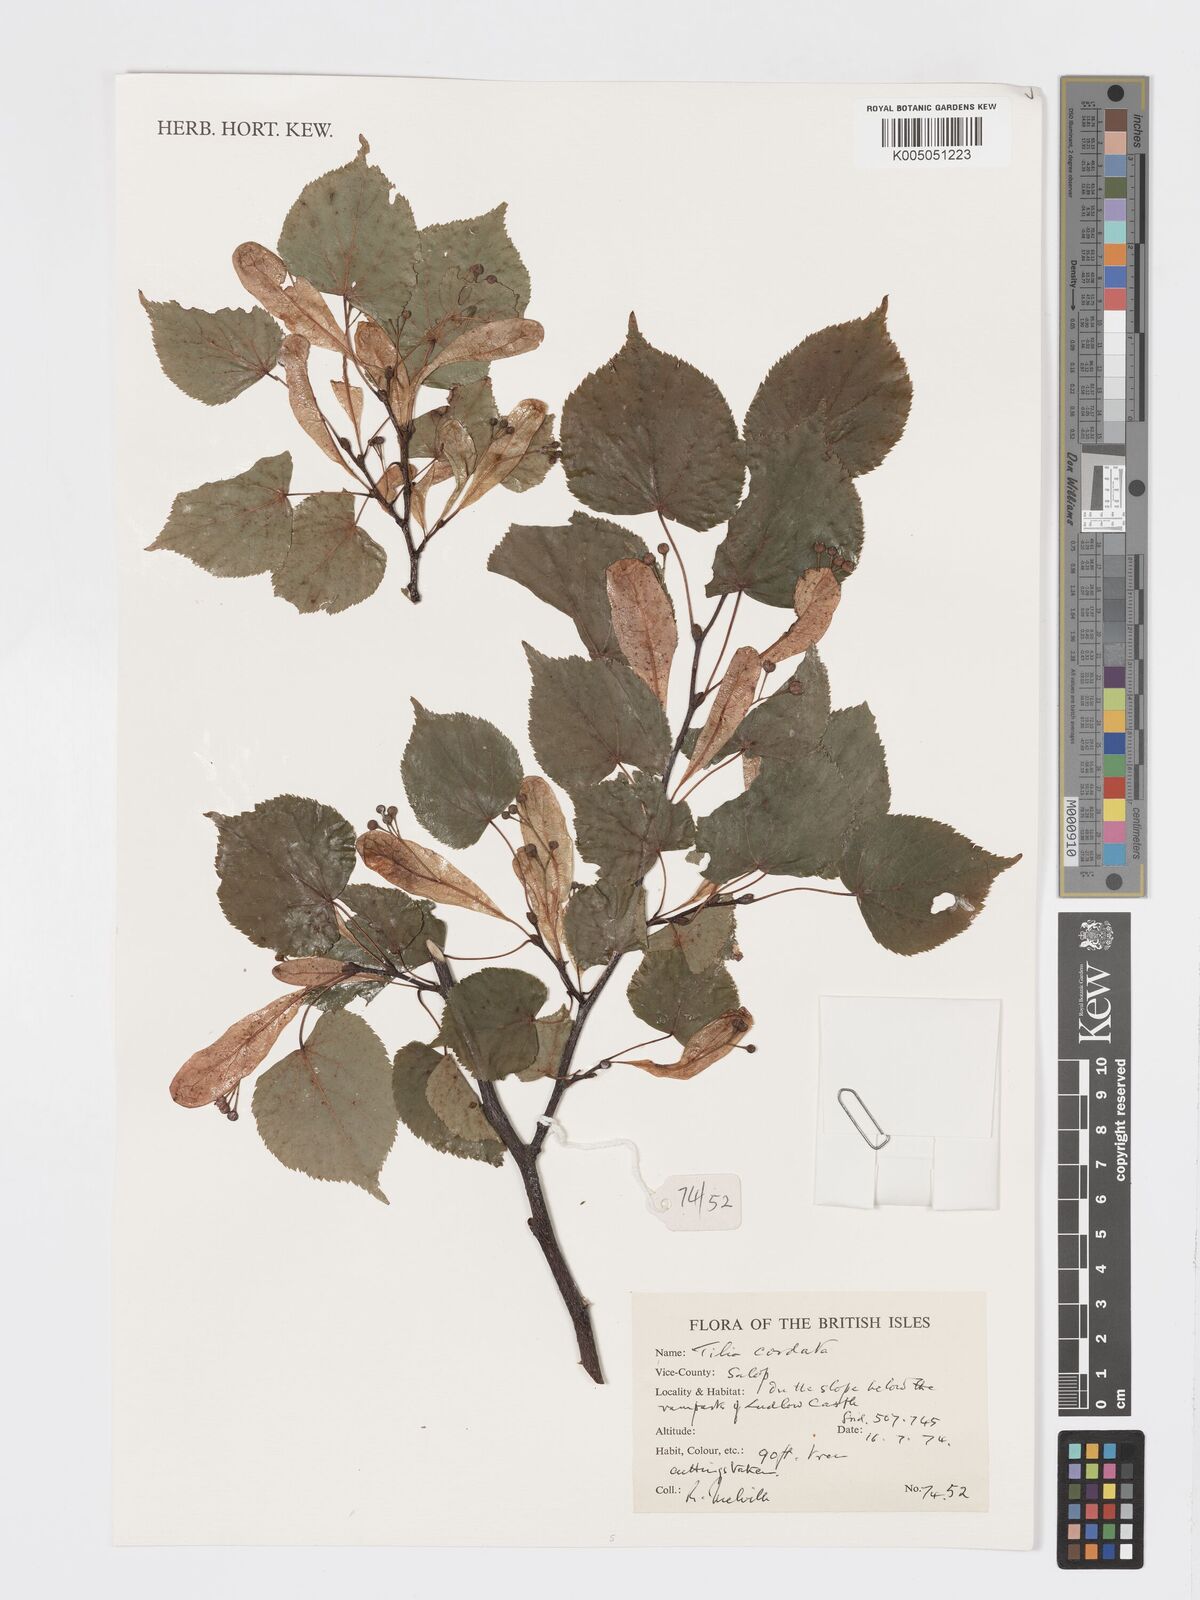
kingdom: Plantae
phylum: Tracheophyta
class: Magnoliopsida
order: Malvales
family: Malvaceae
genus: Tilia
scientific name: Tilia cordata
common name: Small-leaved lime
